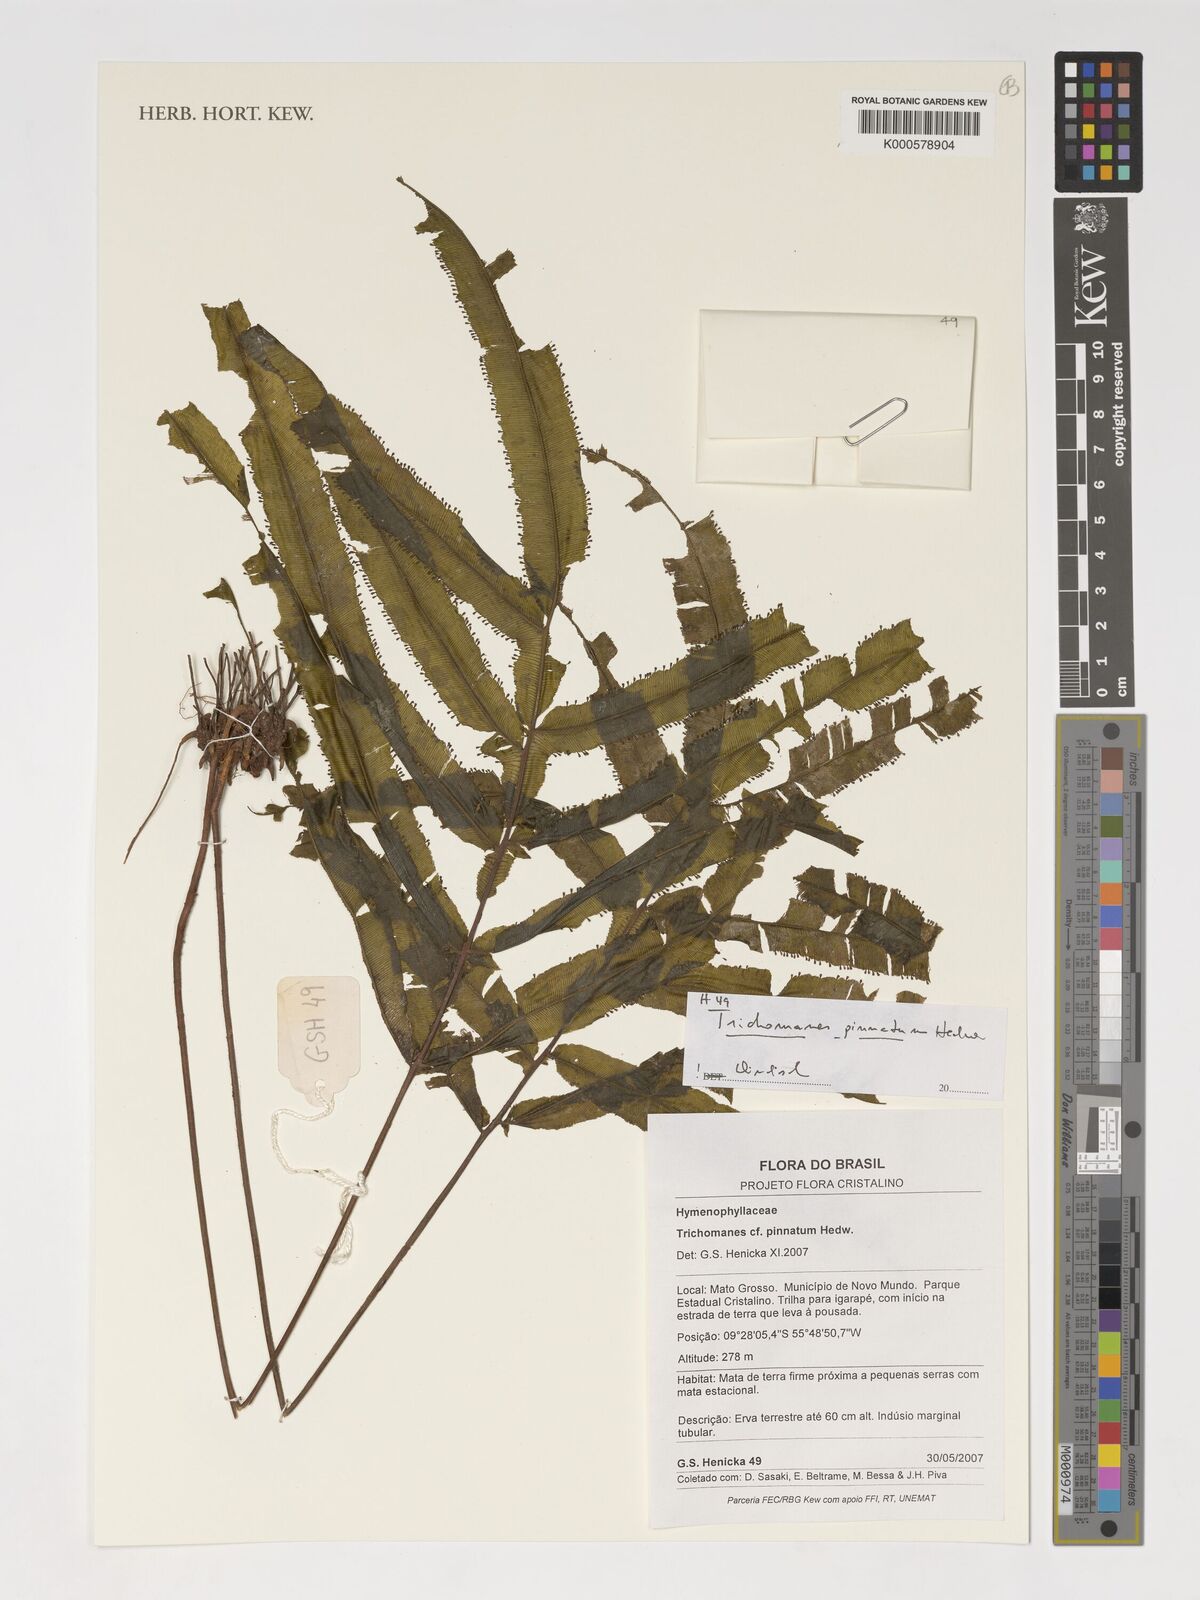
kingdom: Plantae
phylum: Tracheophyta
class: Polypodiopsida
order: Hymenophyllales
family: Hymenophyllaceae
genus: Trichomanes
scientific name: Trichomanes pinnatum
